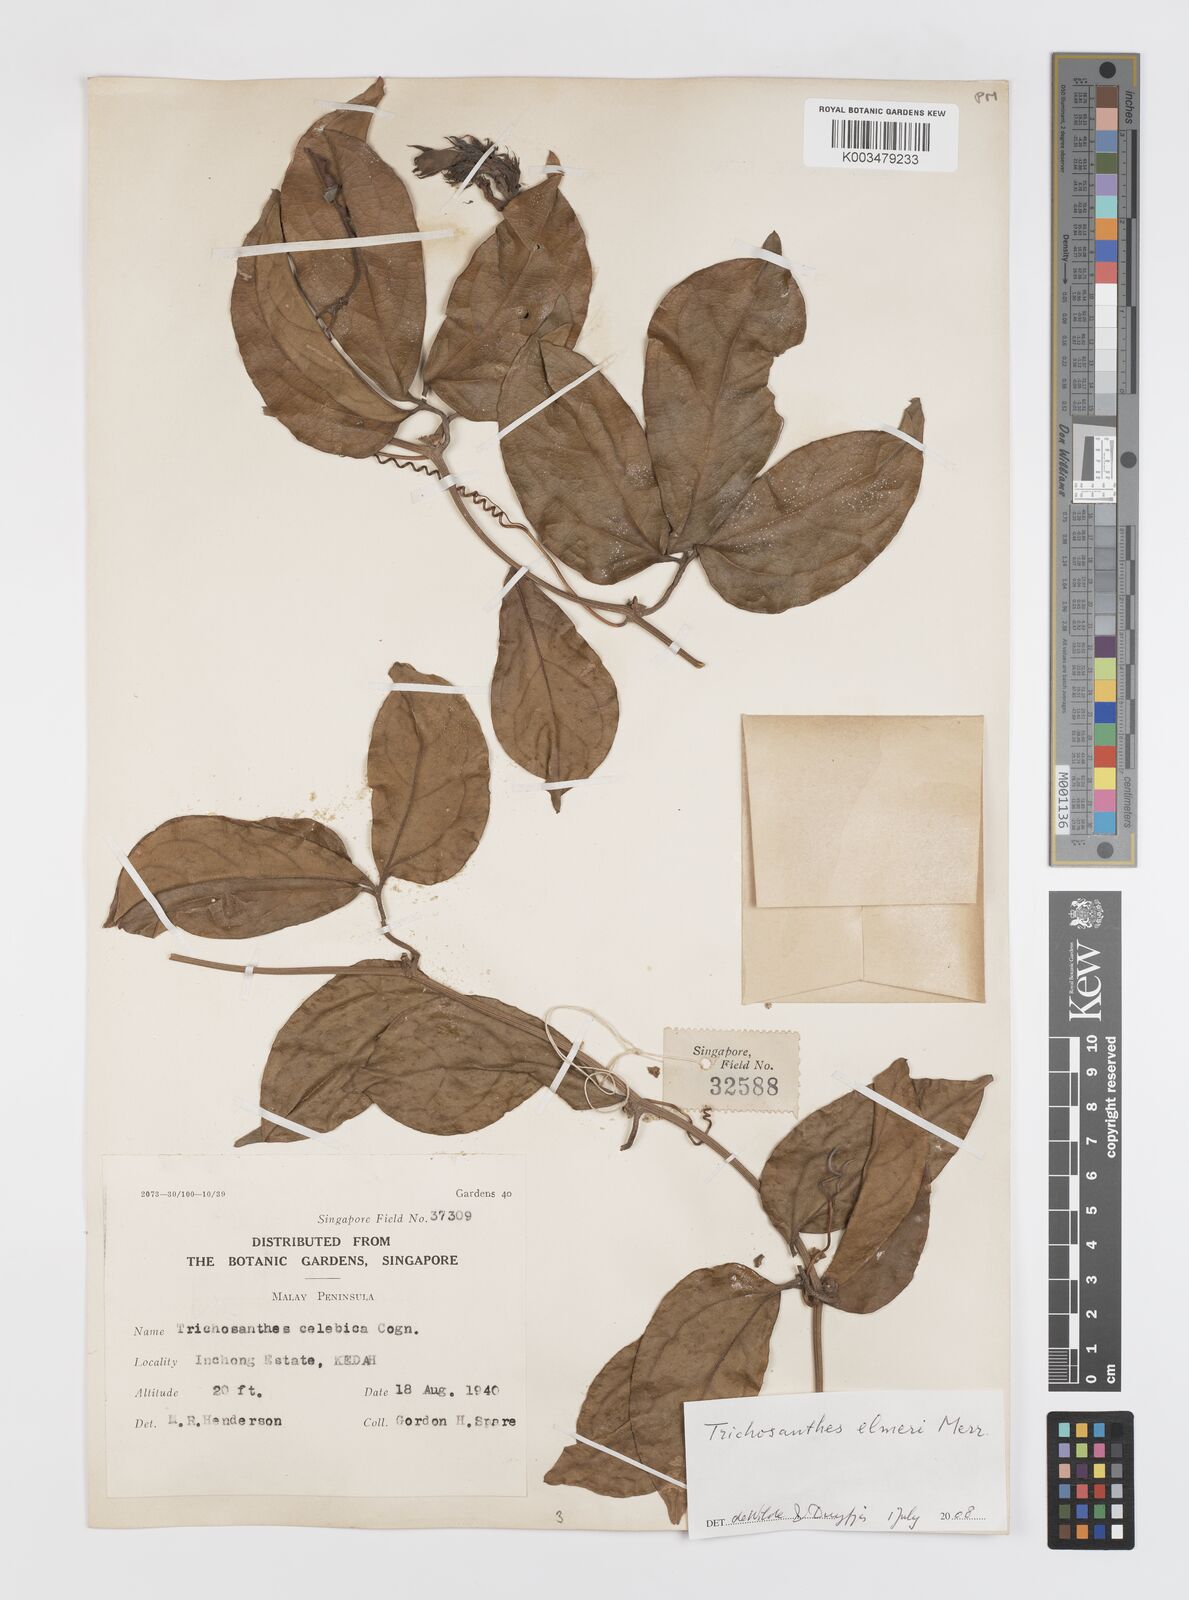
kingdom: Plantae
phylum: Tracheophyta
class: Magnoliopsida
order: Cucurbitales
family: Cucurbitaceae
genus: Trichosanthes
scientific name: Trichosanthes elmeri
